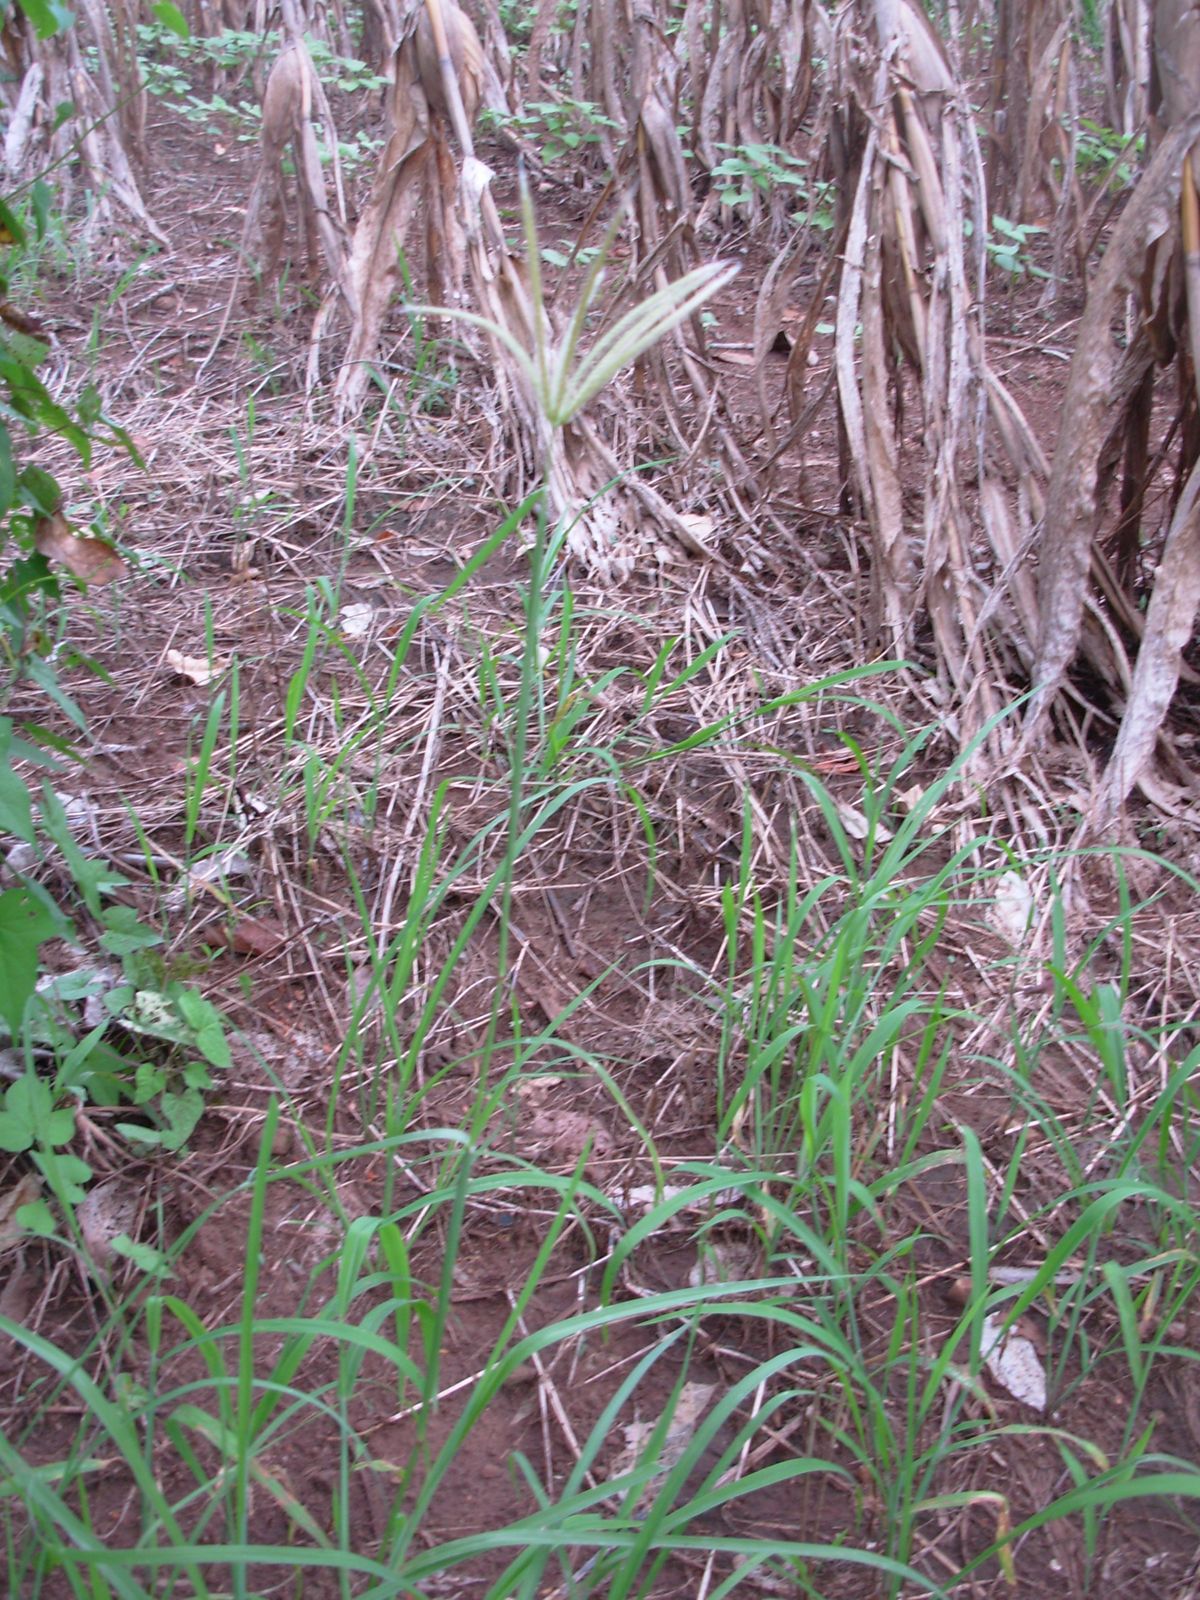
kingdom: Plantae
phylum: Tracheophyta
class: Liliopsida
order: Poales
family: Poaceae
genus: Chloris
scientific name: Chloris virgata
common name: Feathery rhodes-grass
